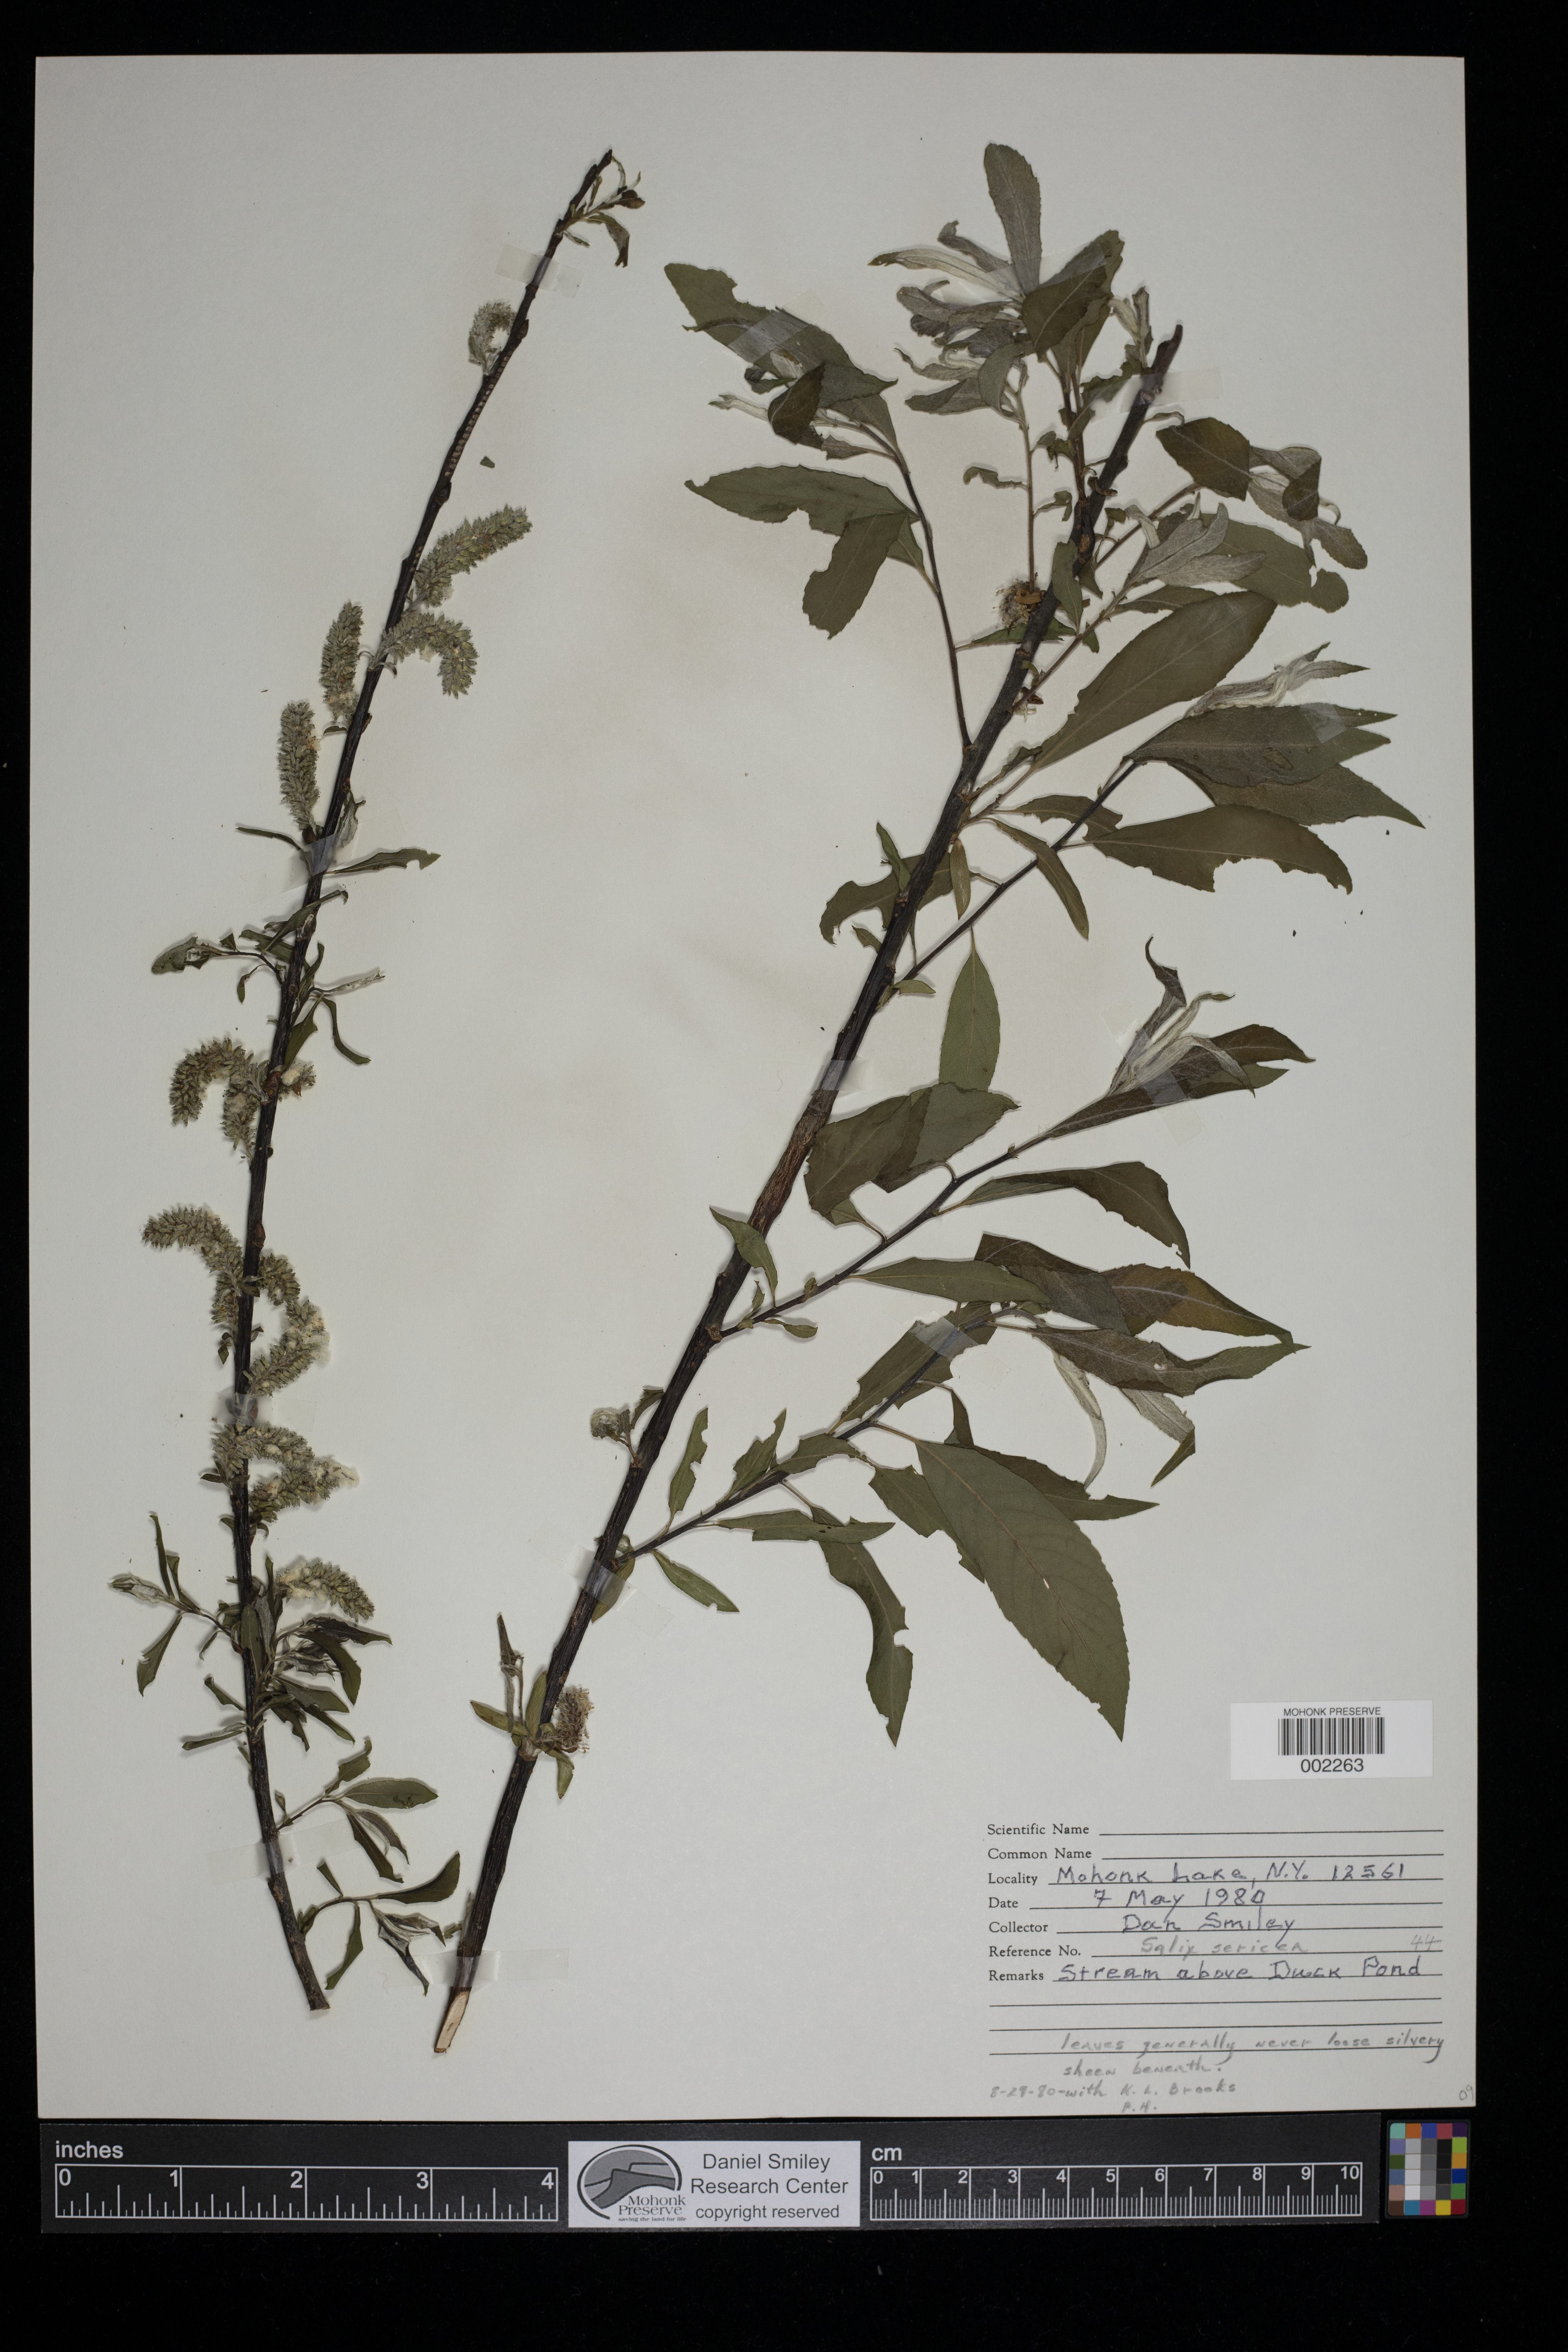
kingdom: Plantae
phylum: Tracheophyta
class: Magnoliopsida
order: Malpighiales
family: Salicaceae
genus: Salix
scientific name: Salix sericea
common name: Silky willow
